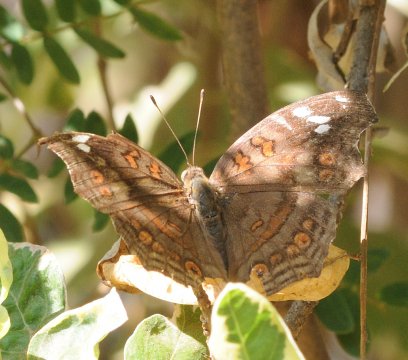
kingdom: Animalia
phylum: Arthropoda
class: Insecta
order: Lepidoptera
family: Nymphalidae
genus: Junonia
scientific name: Junonia natalica
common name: Natal Pansy
